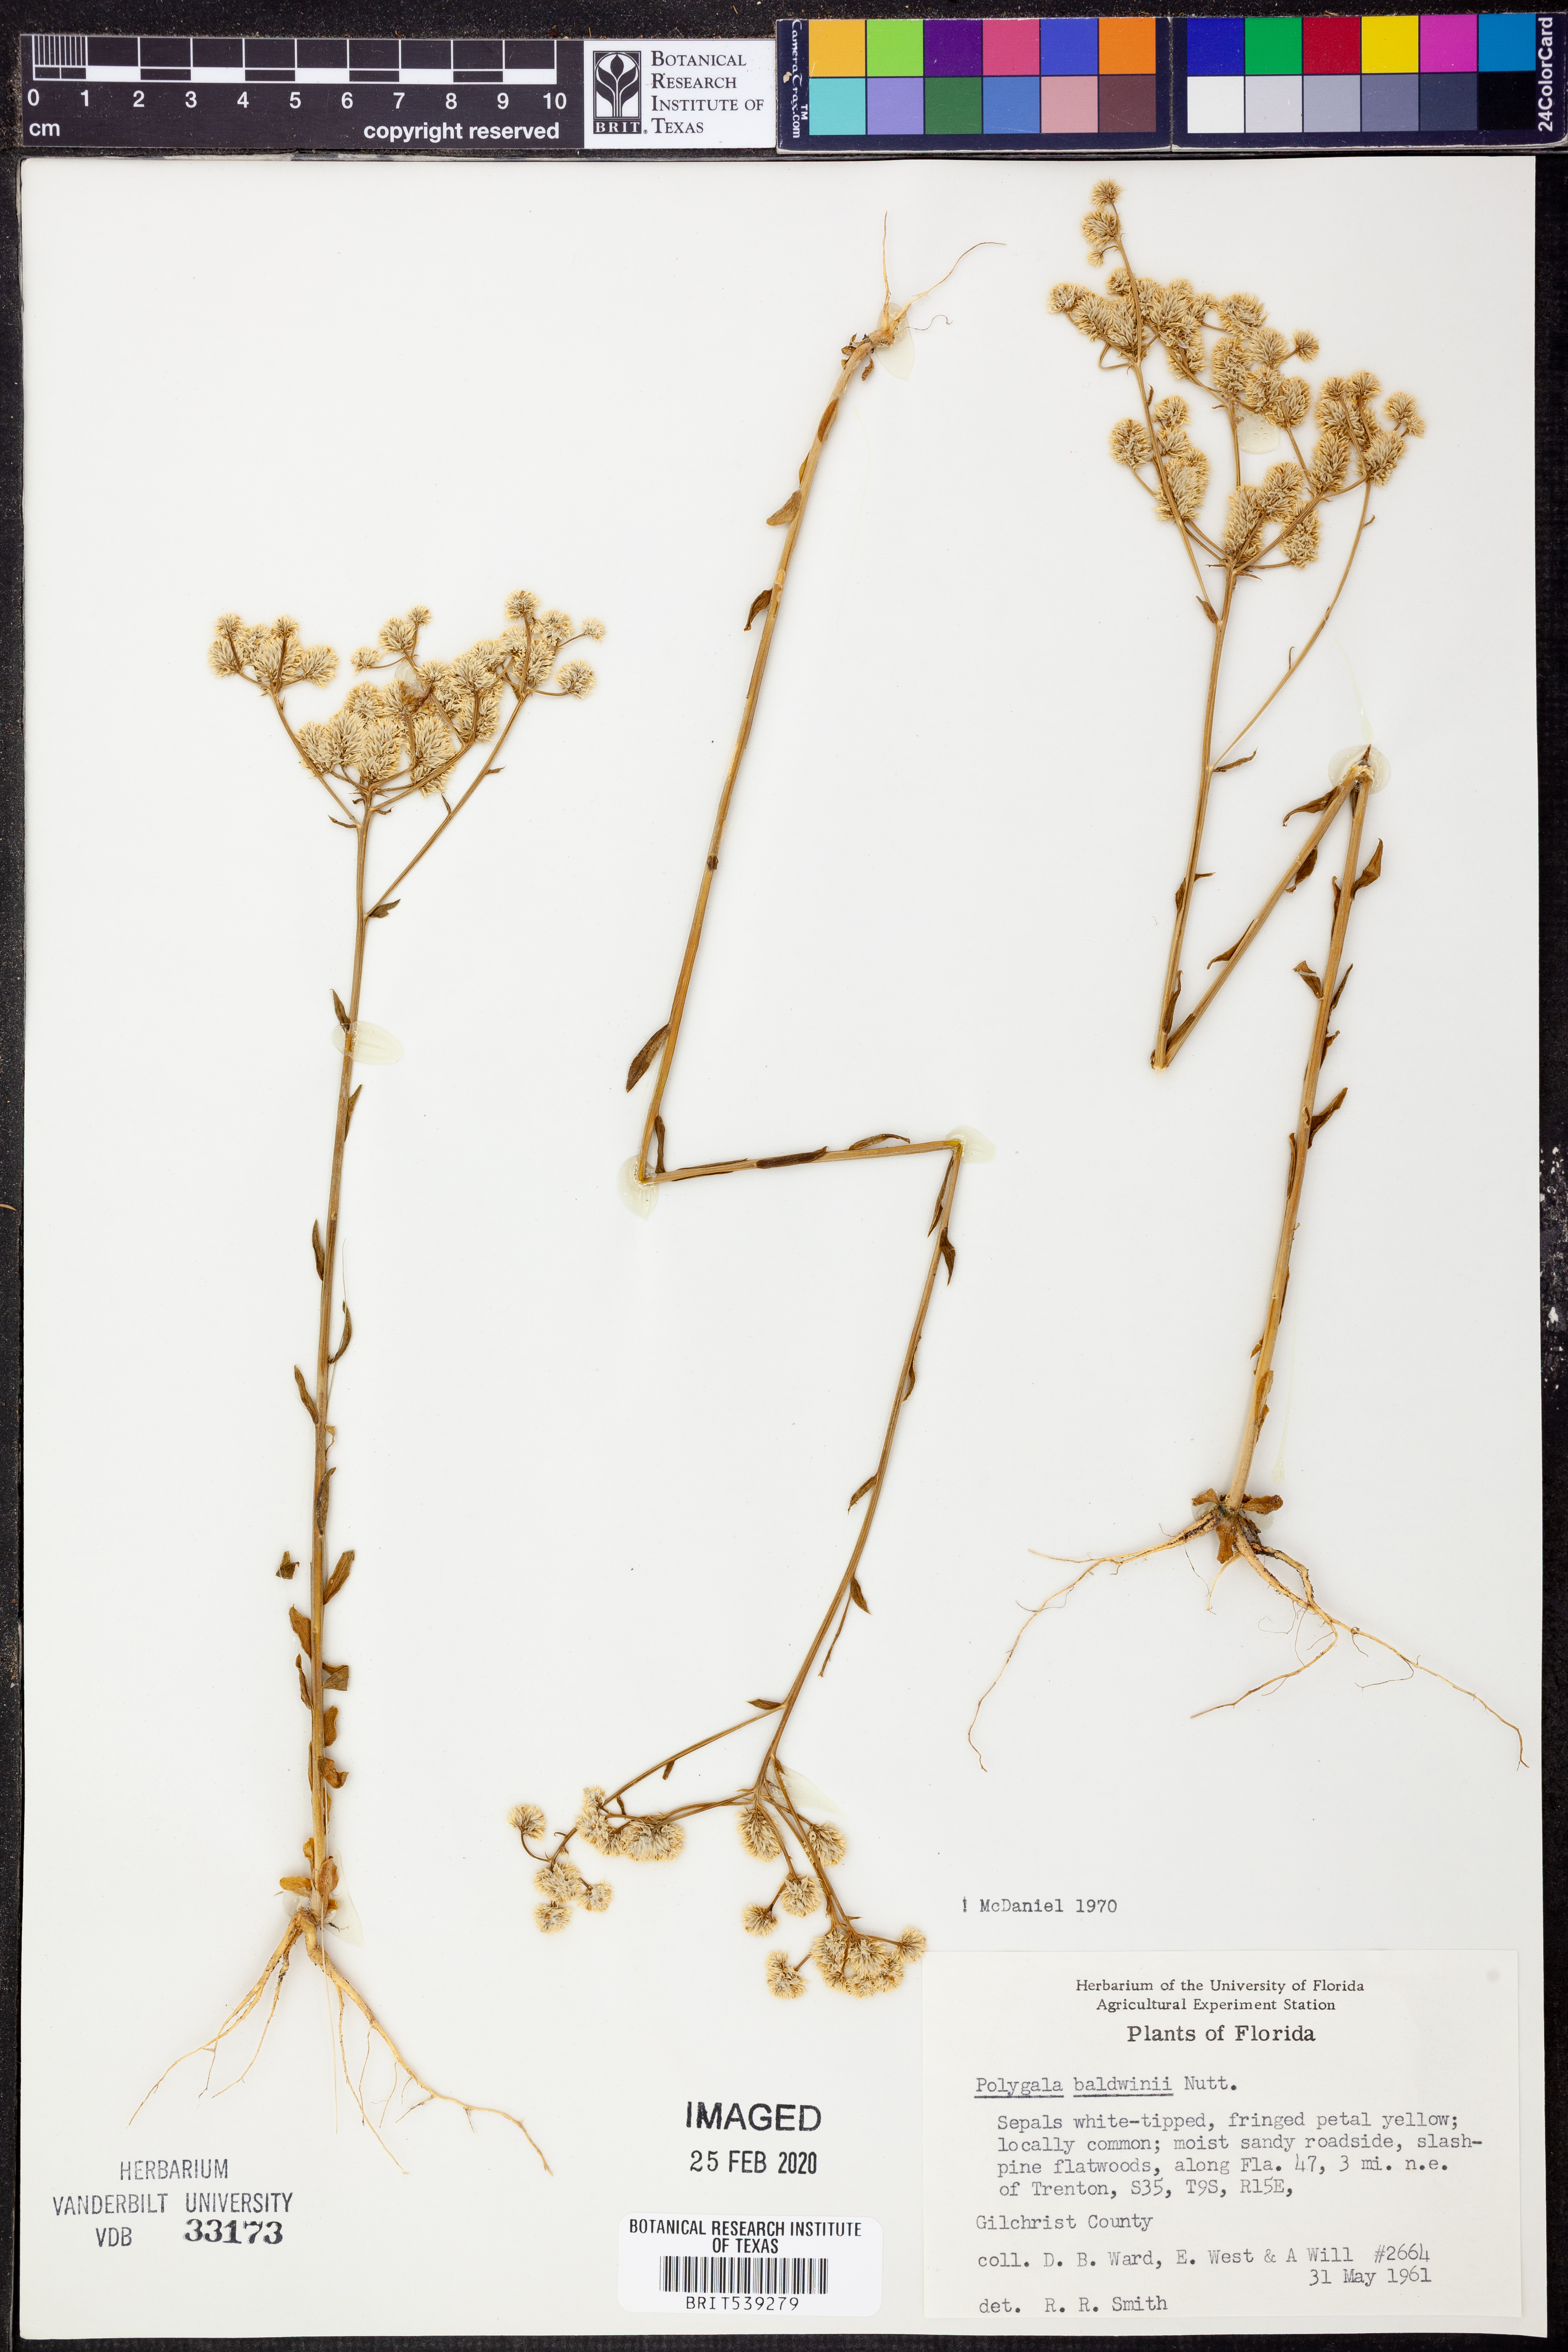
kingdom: Plantae
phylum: Tracheophyta
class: Magnoliopsida
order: Fabales
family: Polygalaceae
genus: Polygala
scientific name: Polygala baldwinii
